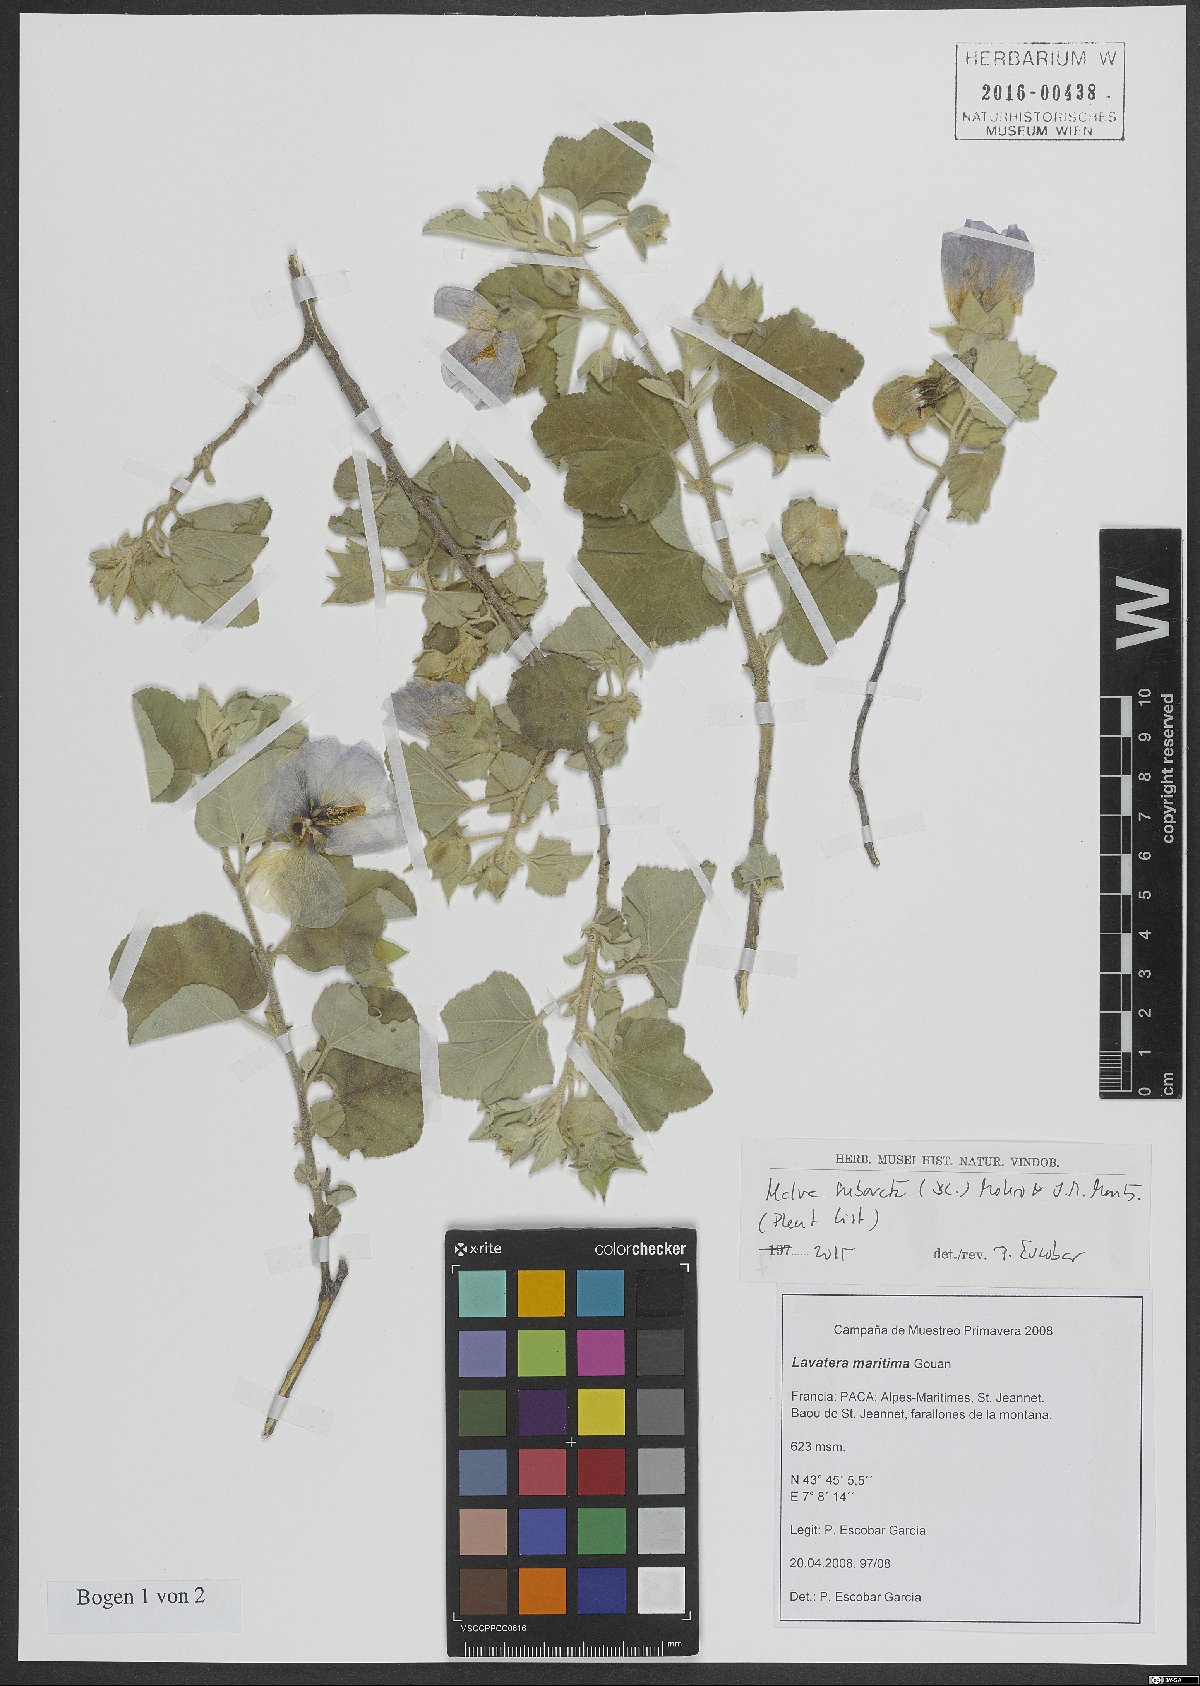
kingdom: Plantae
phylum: Tracheophyta
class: Magnoliopsida
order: Malvales
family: Malvaceae
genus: Malva
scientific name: Malva subovata
